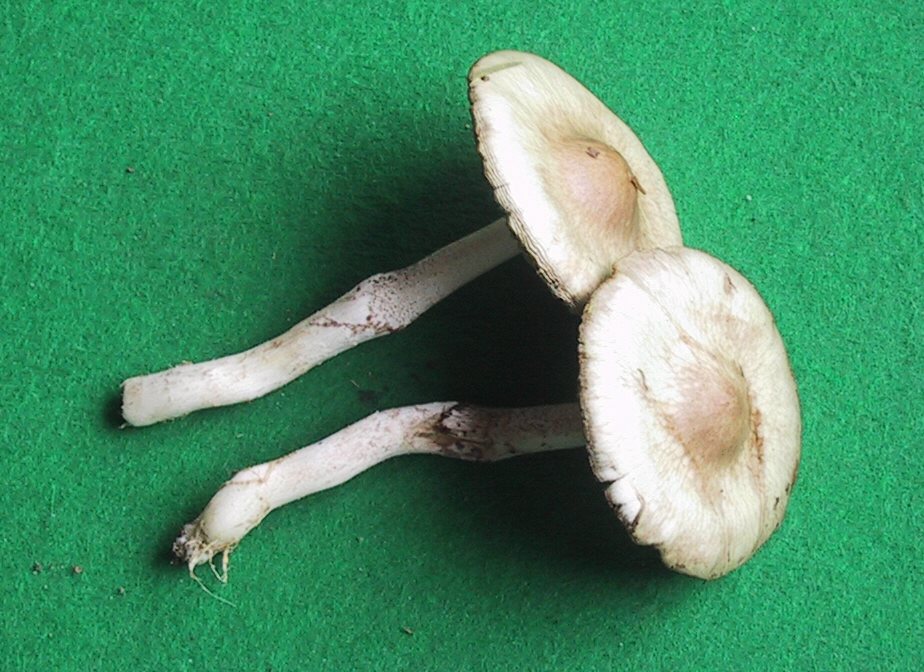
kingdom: Fungi
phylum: Basidiomycota
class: Agaricomycetes
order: Agaricales
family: Strophariaceae
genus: Stropharia
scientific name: Stropharia inuncta
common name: lillabrun bredblad
